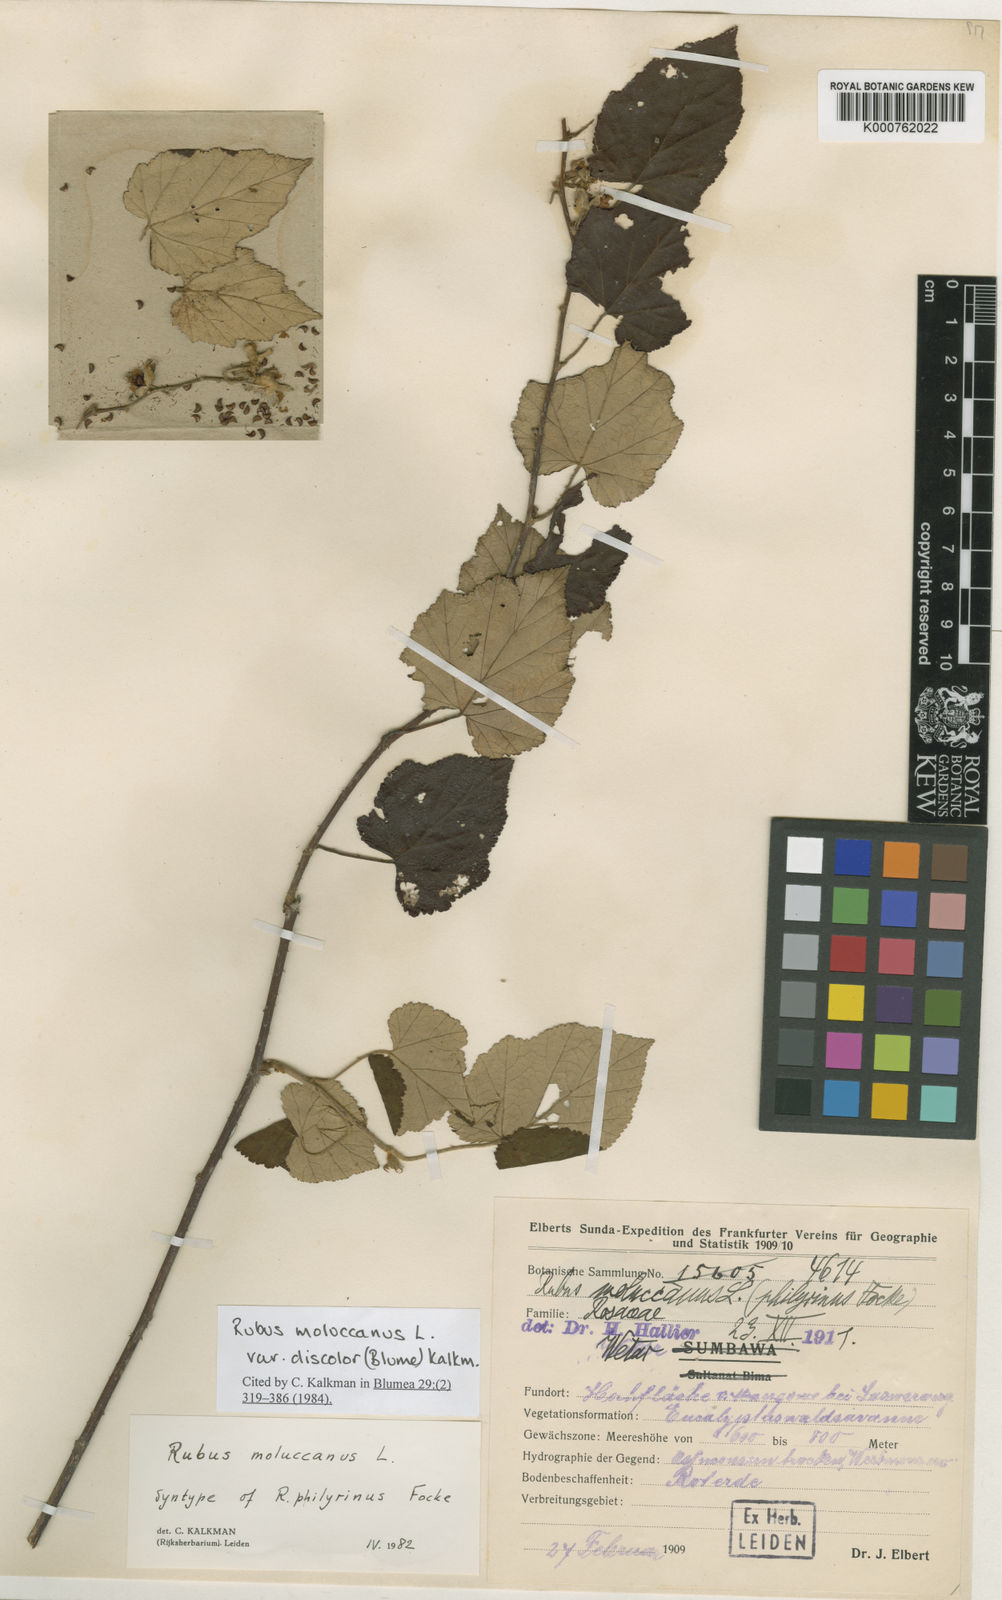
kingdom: Plantae
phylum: Tracheophyta
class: Magnoliopsida
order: Rosales
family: Rosaceae
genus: Rubus
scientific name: Rubus moluccanus
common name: Wild raspberry
